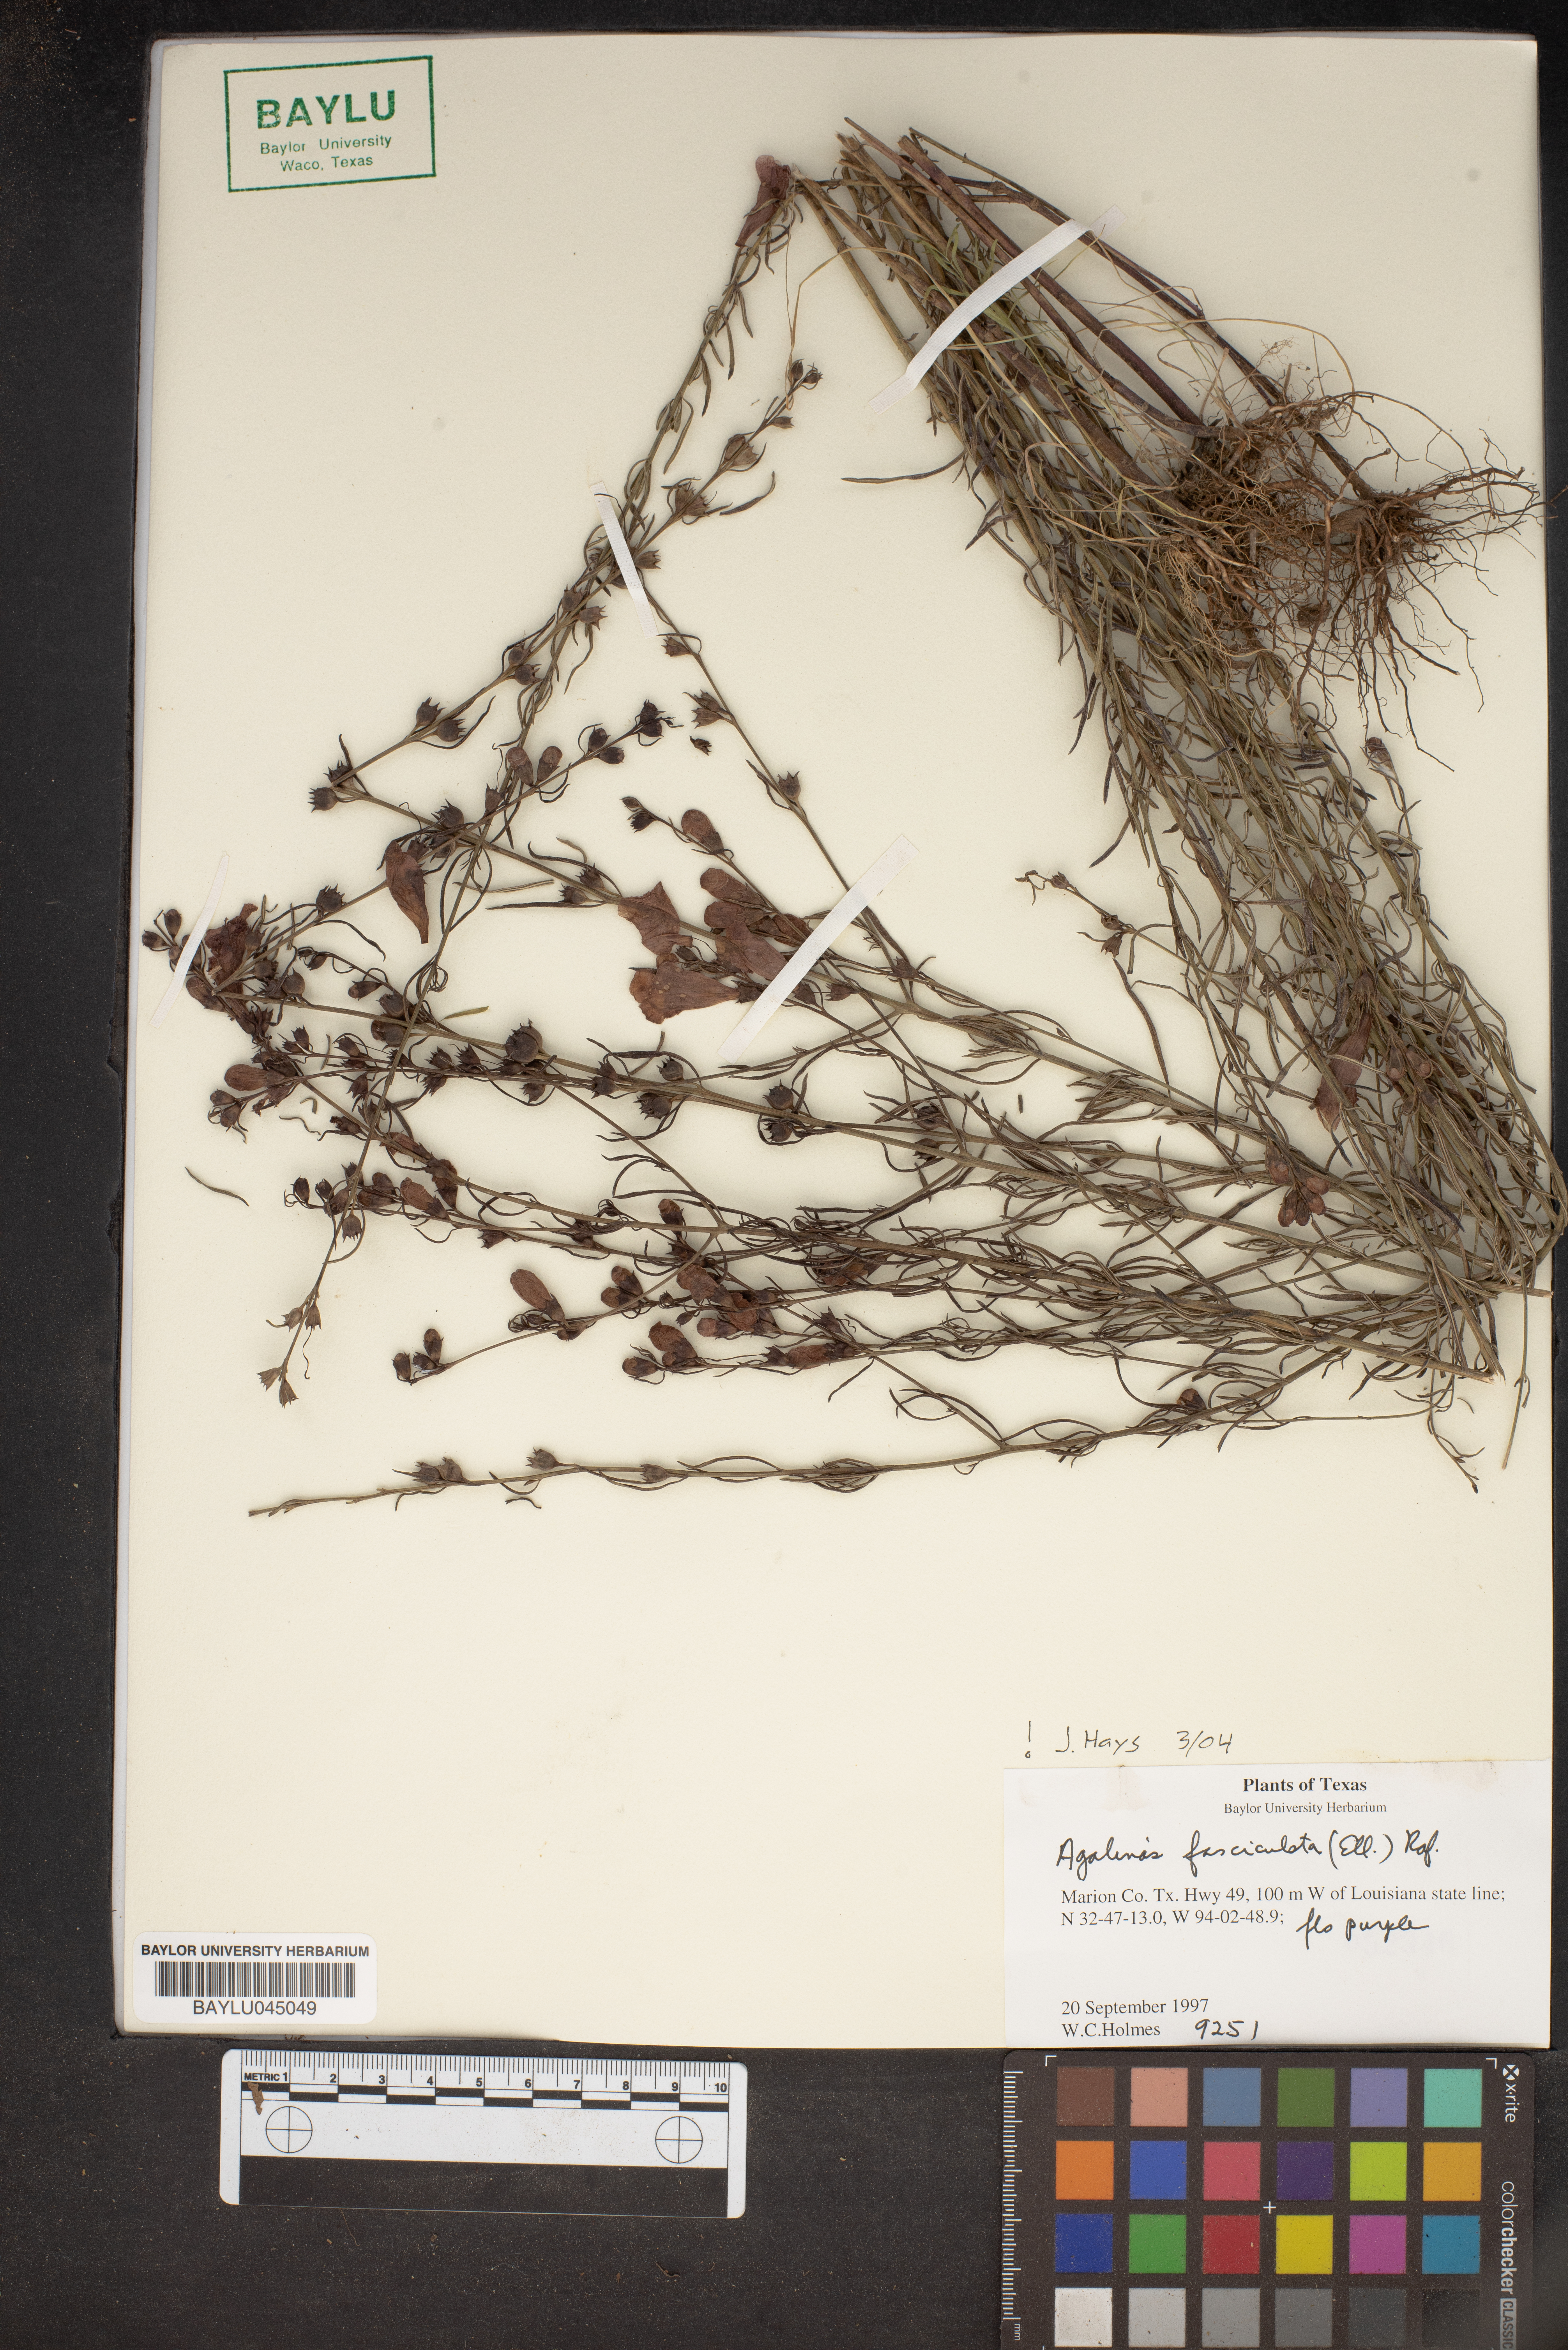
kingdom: Plantae
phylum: Tracheophyta
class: Magnoliopsida
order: Lamiales
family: Orobanchaceae
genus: Agalinis
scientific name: Agalinis fasciculata
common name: Beach false foxglove
